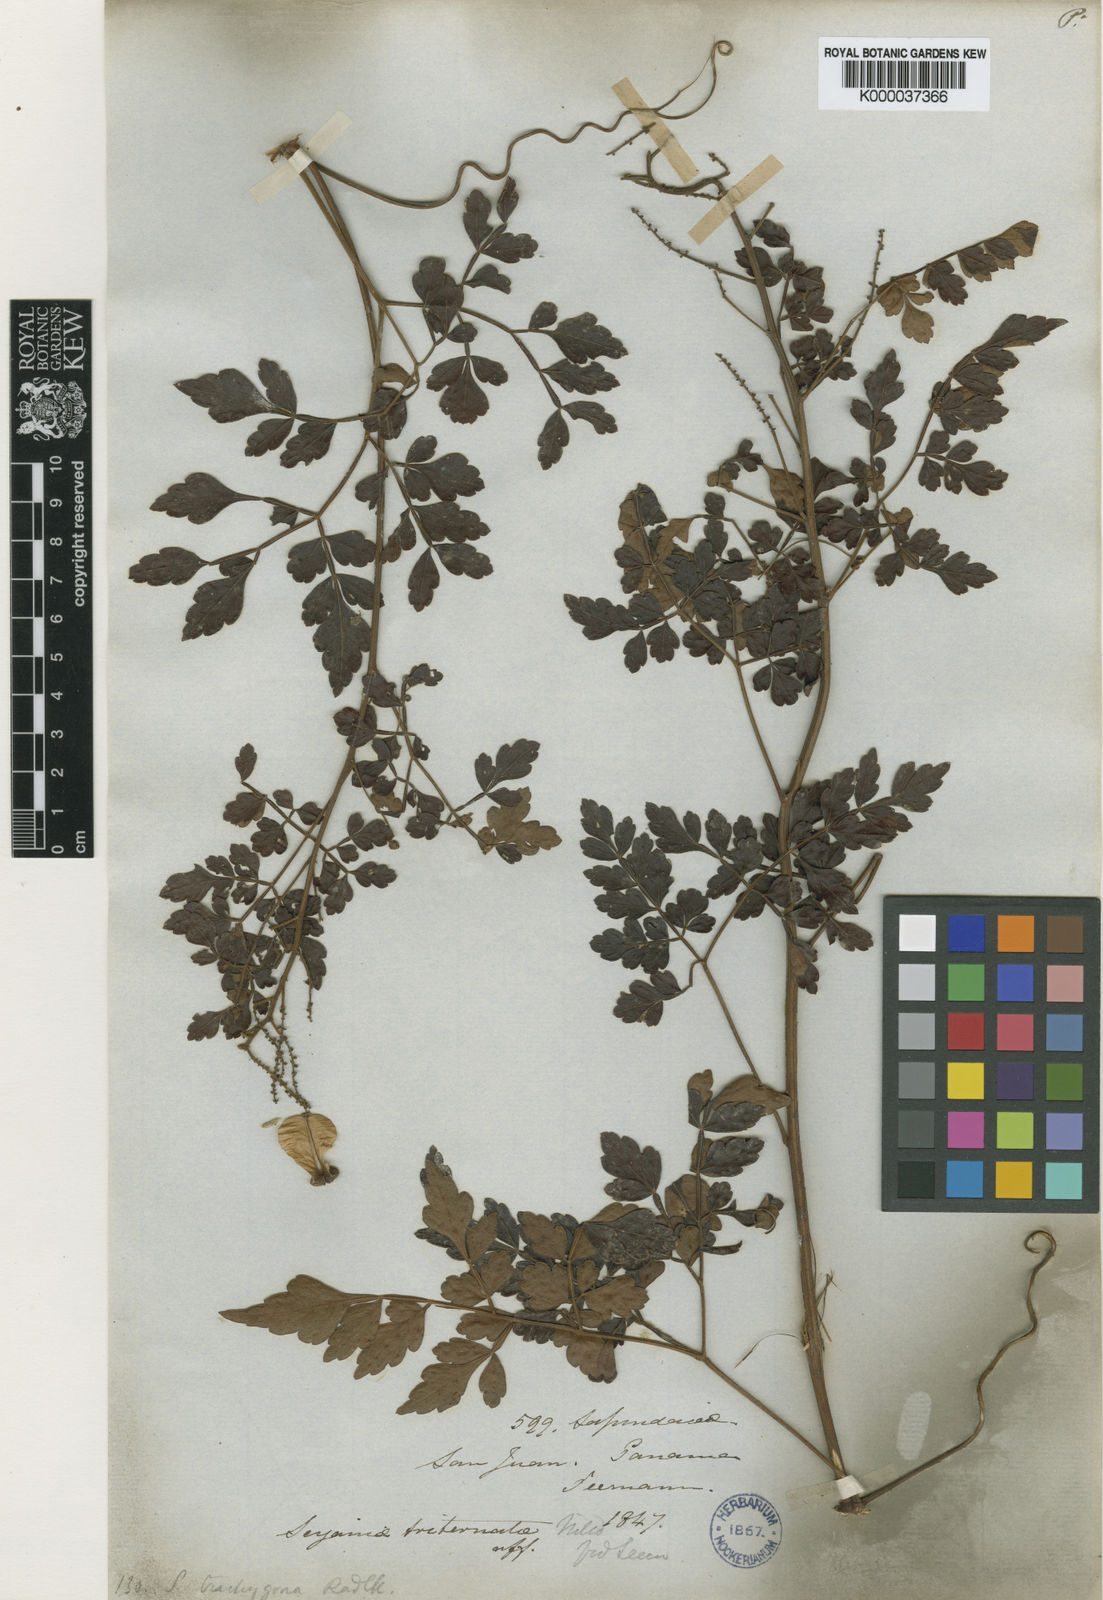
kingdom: Plantae
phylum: Tracheophyta
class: Magnoliopsida
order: Sapindales
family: Sapindaceae
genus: Serjania
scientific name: Serjania trachygona
